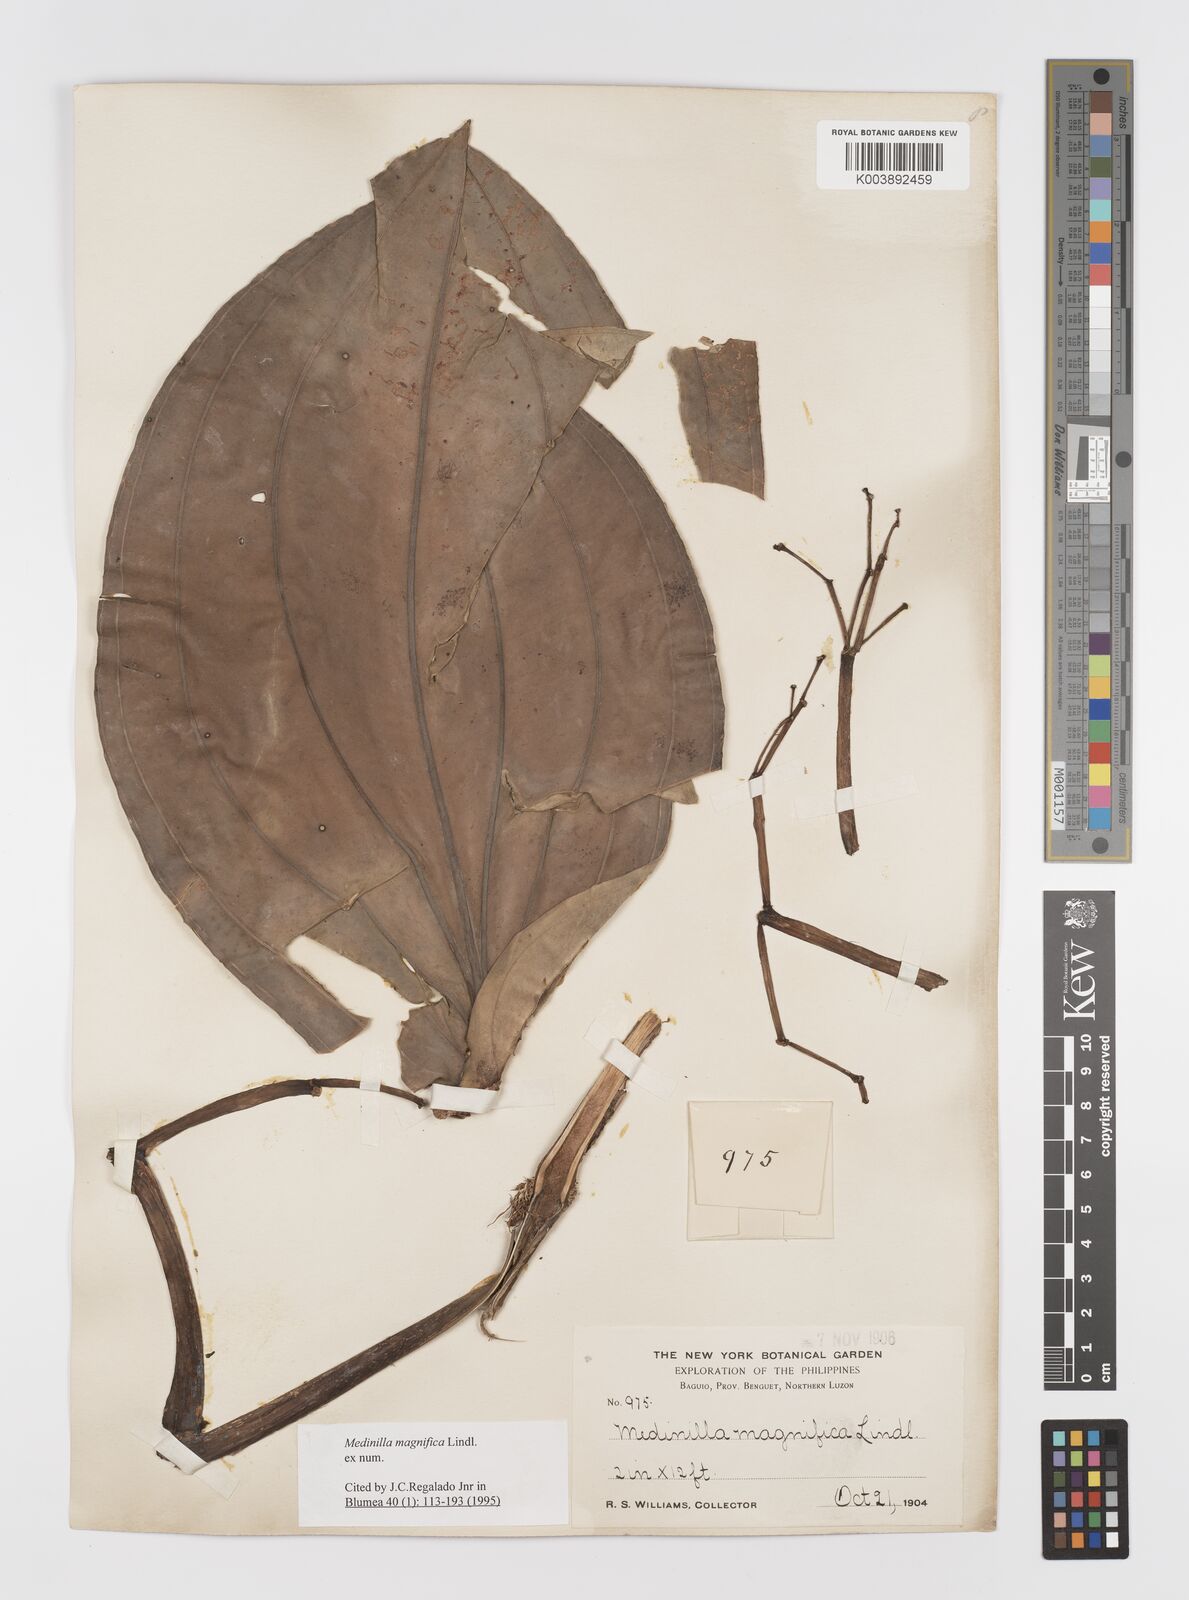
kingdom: Plantae
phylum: Tracheophyta
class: Magnoliopsida
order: Myrtales
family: Melastomataceae
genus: Medinilla
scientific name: Medinilla magnifica
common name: Showy medinilla
